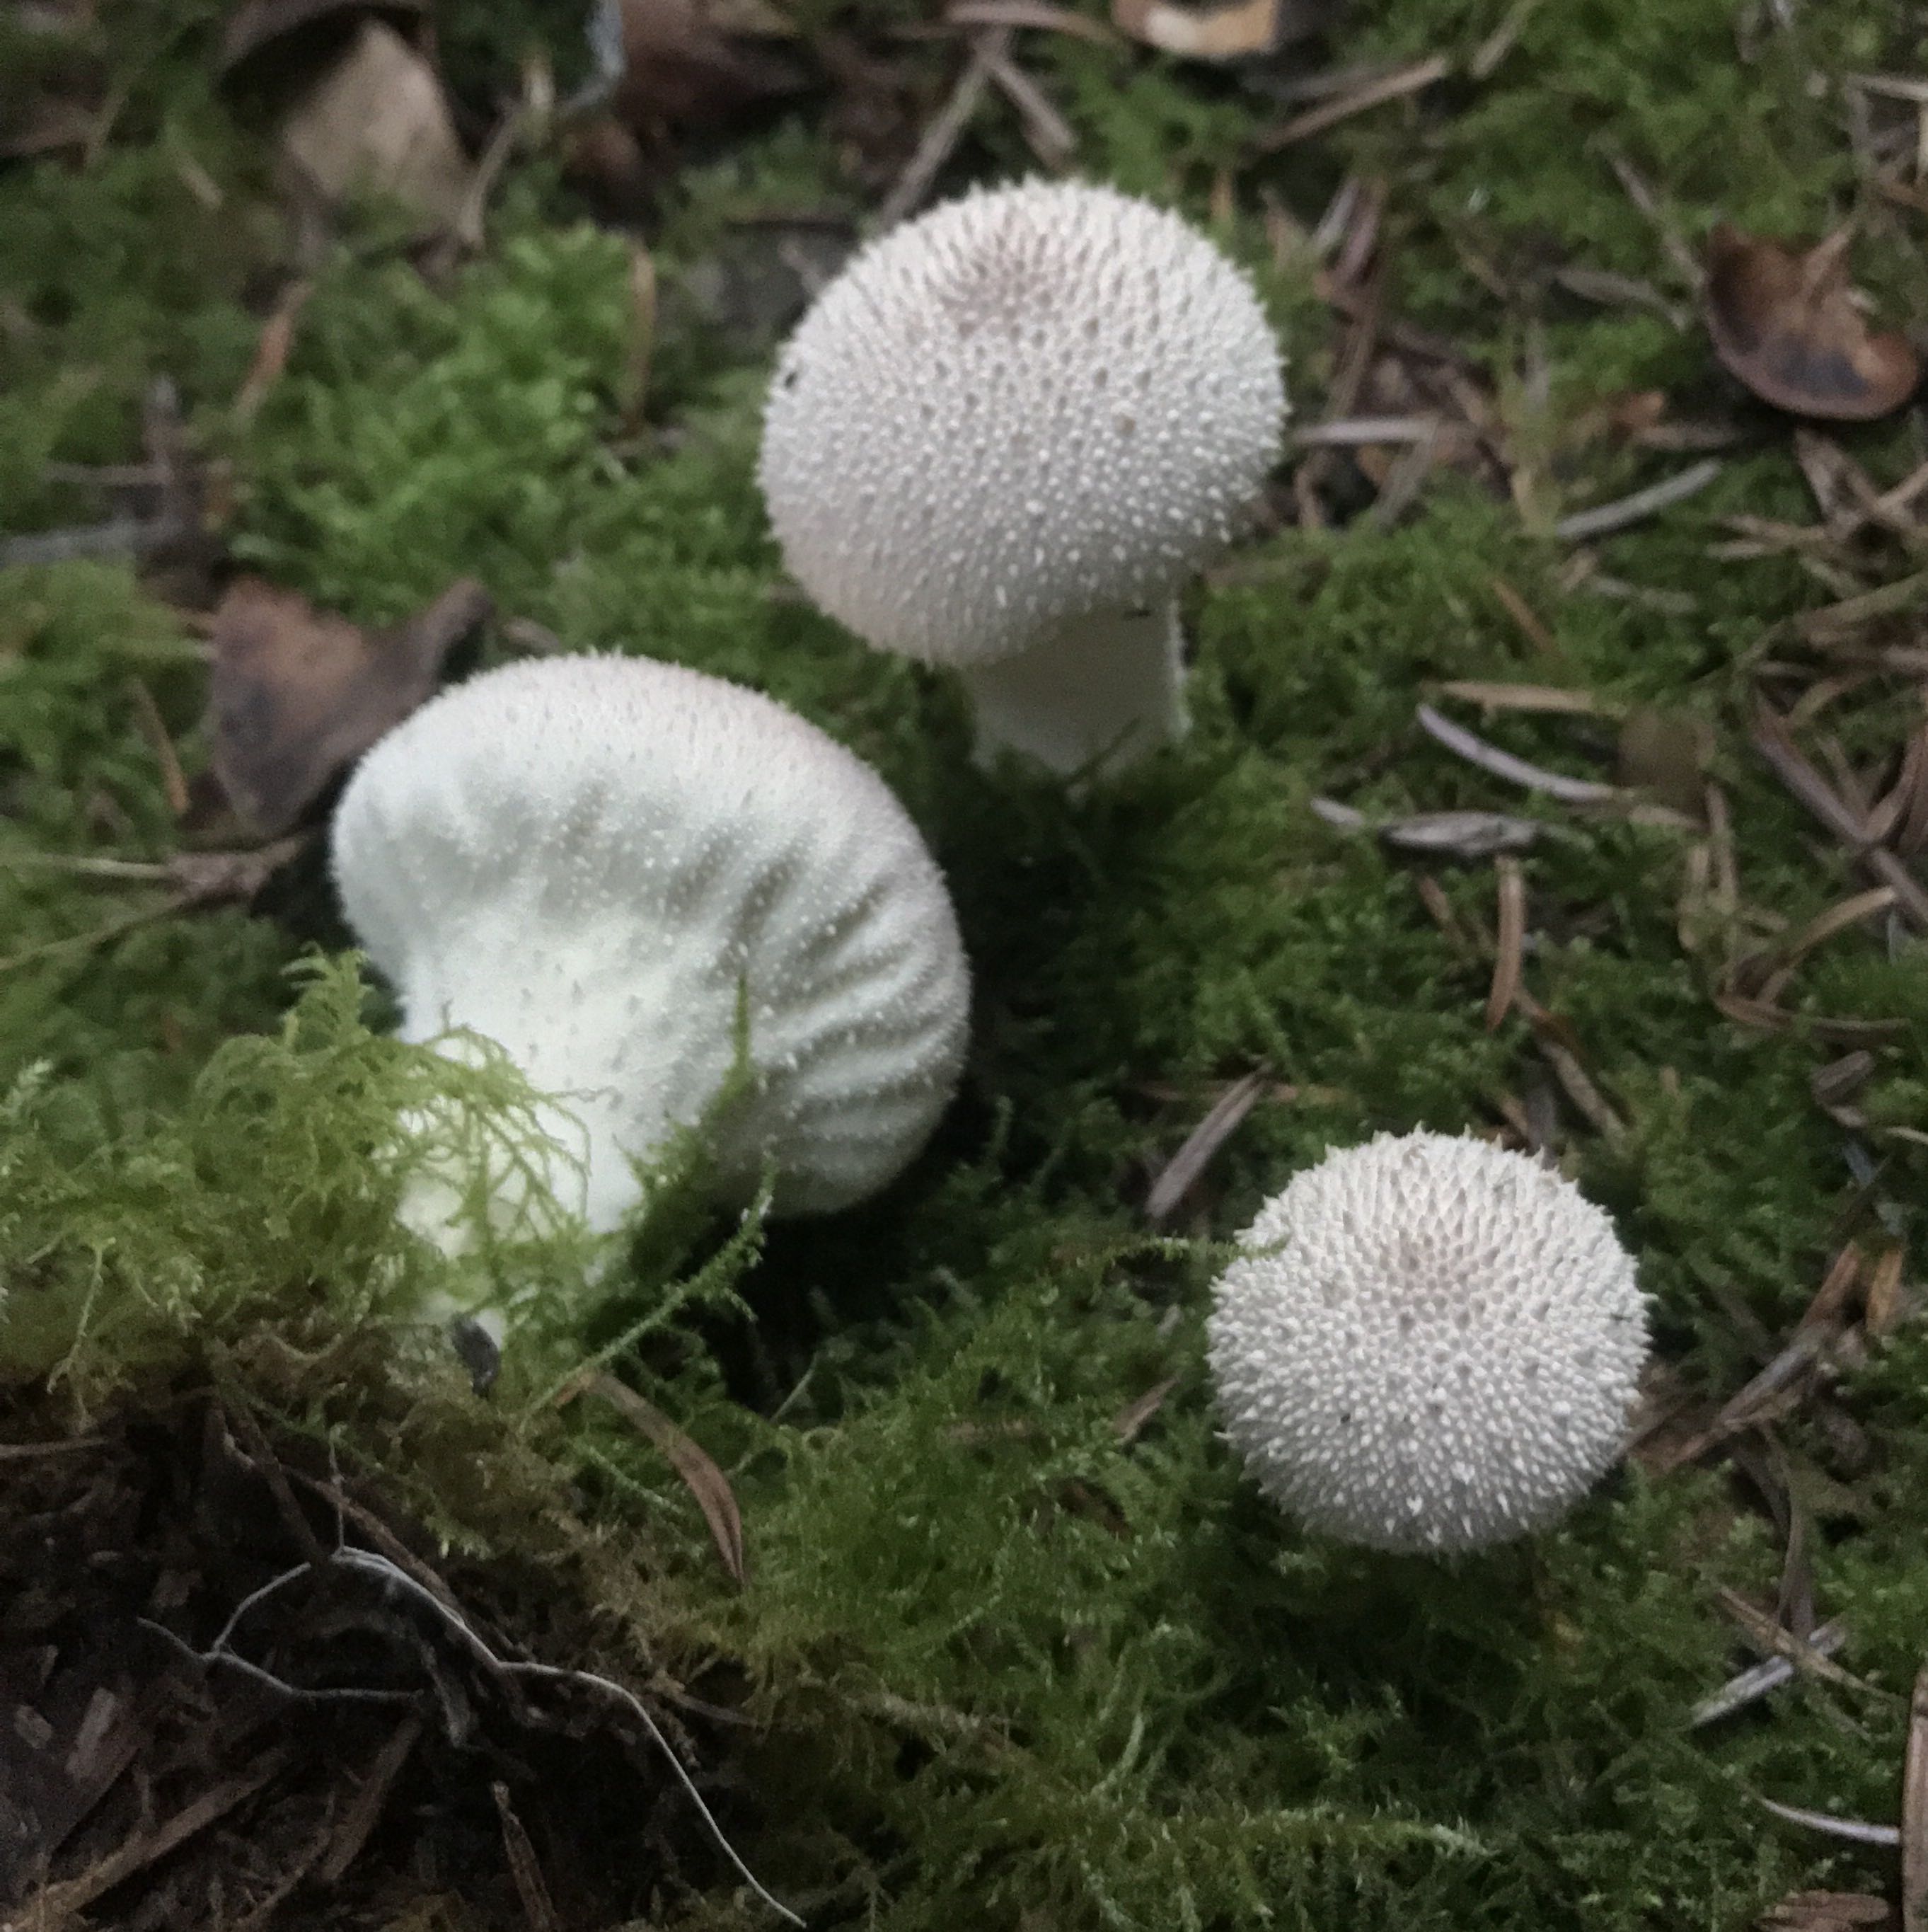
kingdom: Fungi
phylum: Basidiomycota
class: Agaricomycetes
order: Agaricales
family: Lycoperdaceae
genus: Lycoperdon
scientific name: Lycoperdon perlatum
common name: krystal-støvbold
